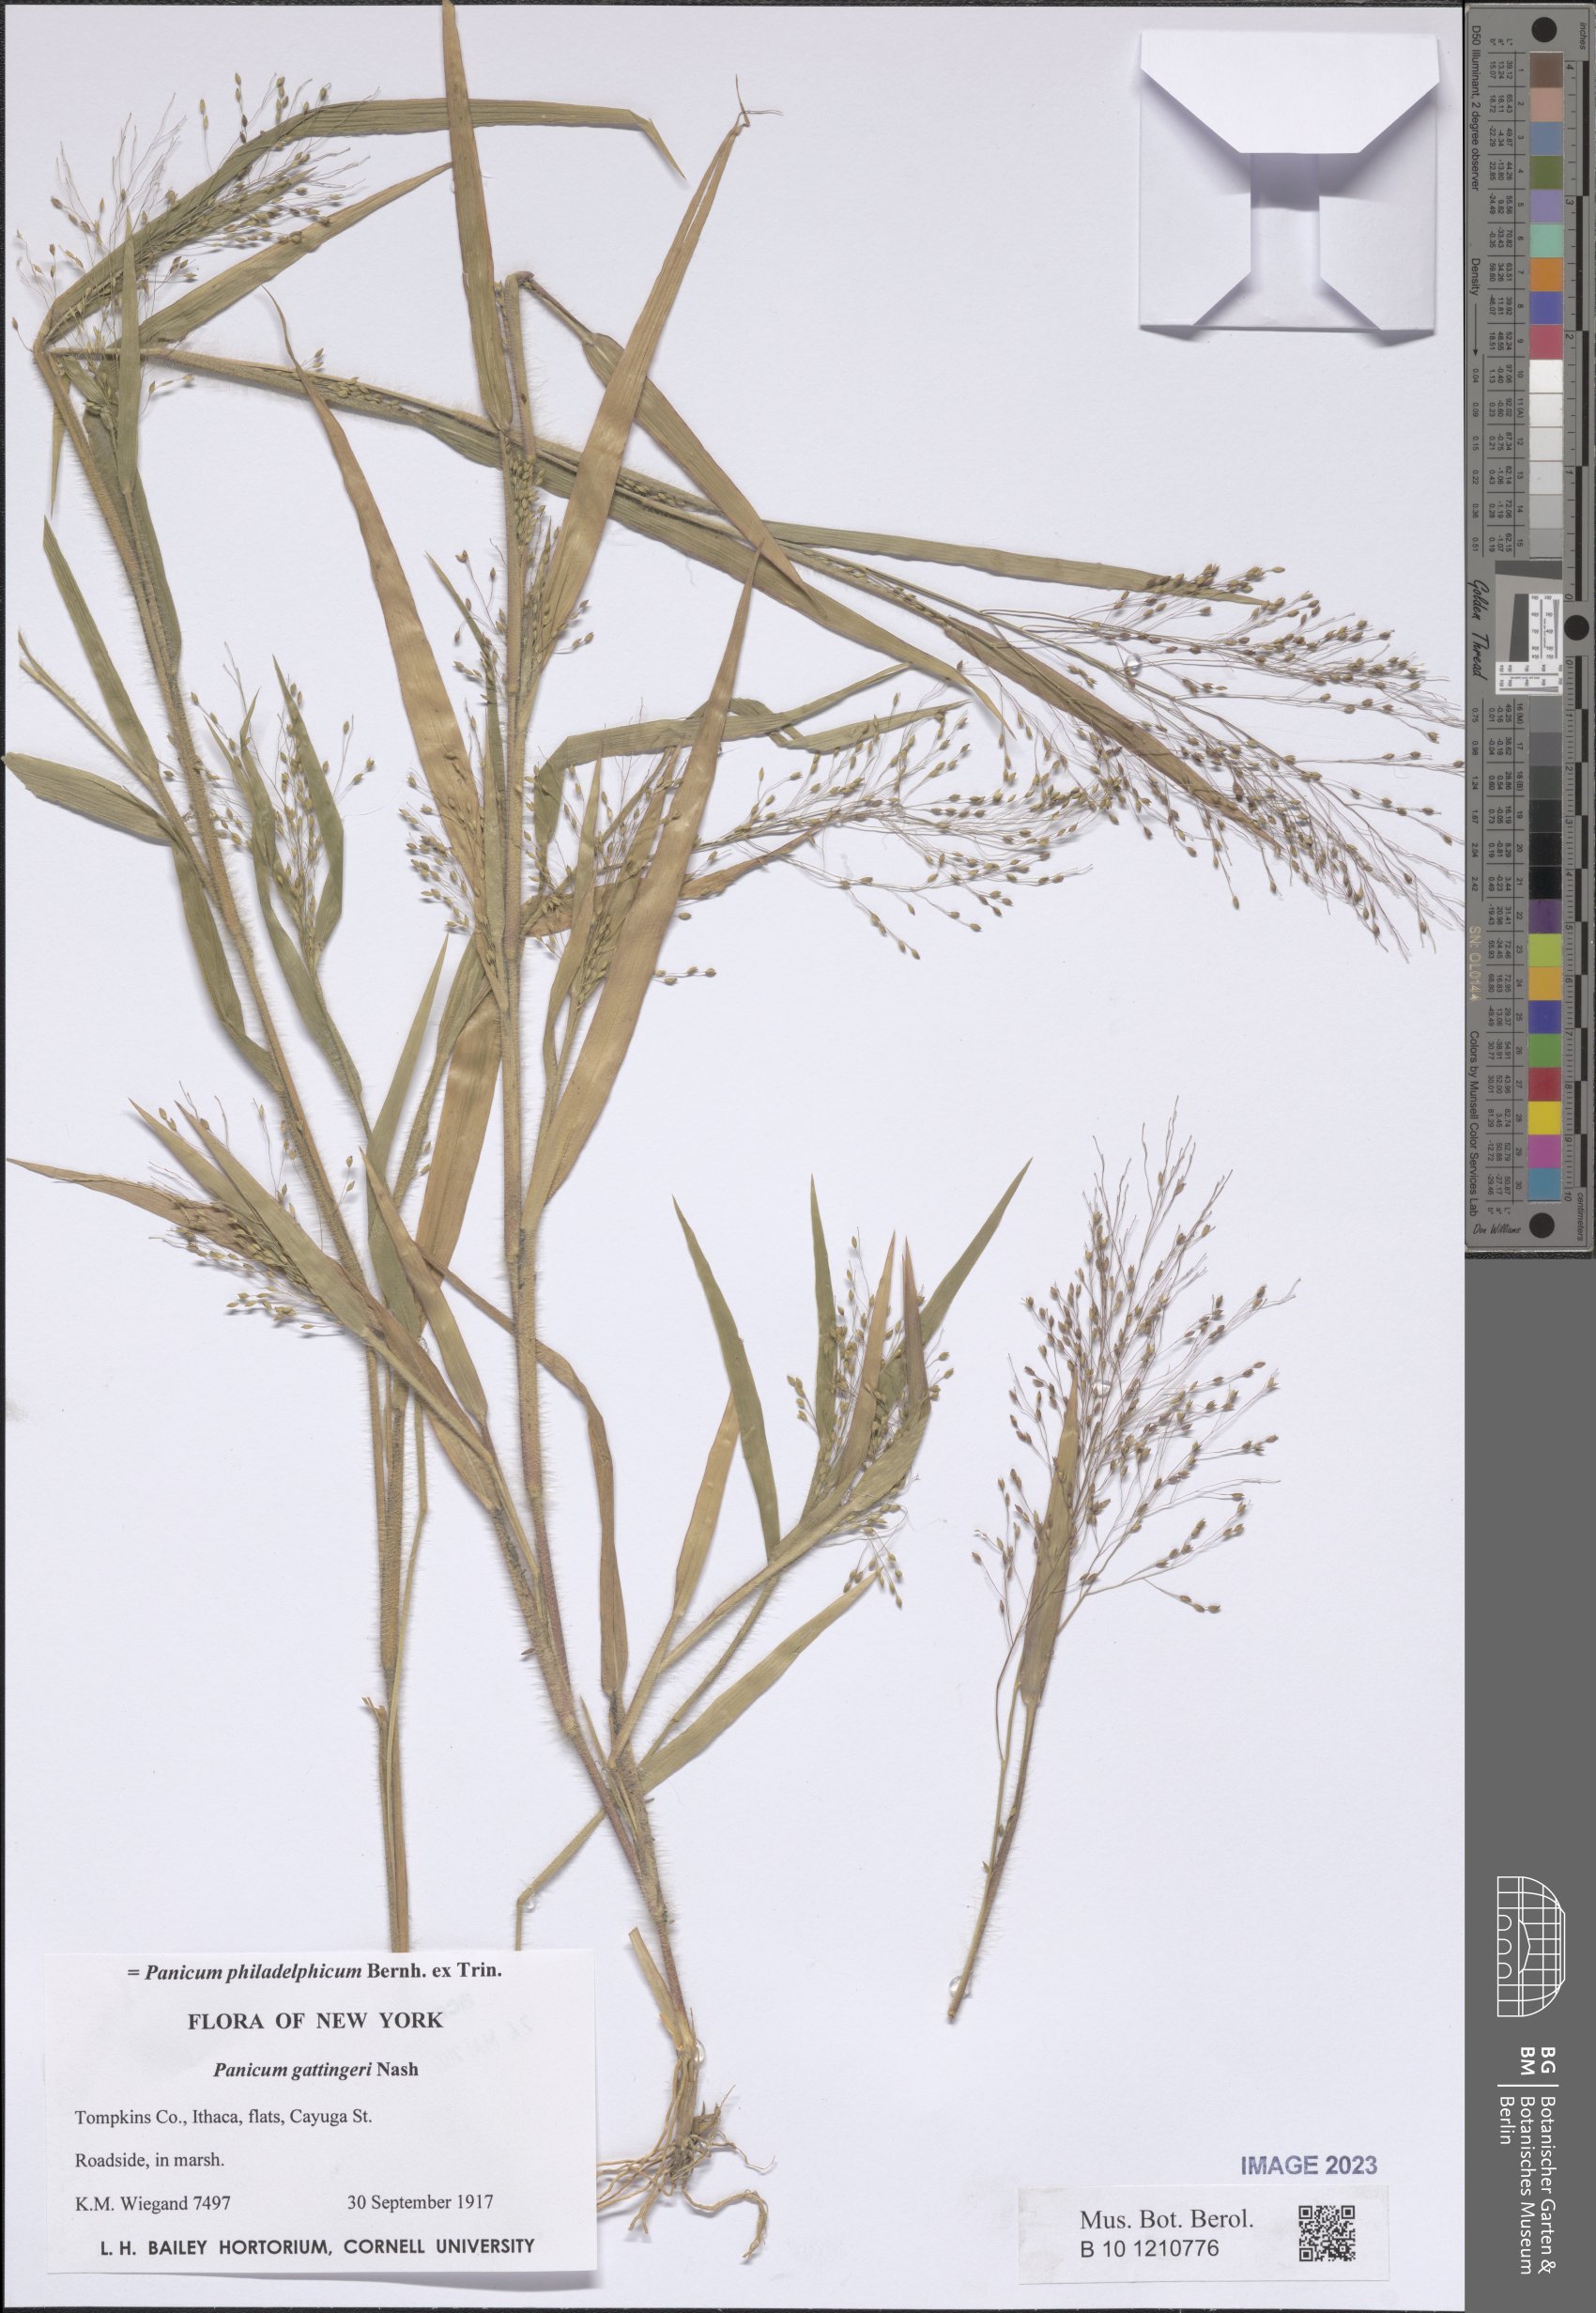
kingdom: Plantae
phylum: Tracheophyta
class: Liliopsida
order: Poales
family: Poaceae
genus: Panicum
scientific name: Panicum philadelphicum
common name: Philadelphia witchgrass
